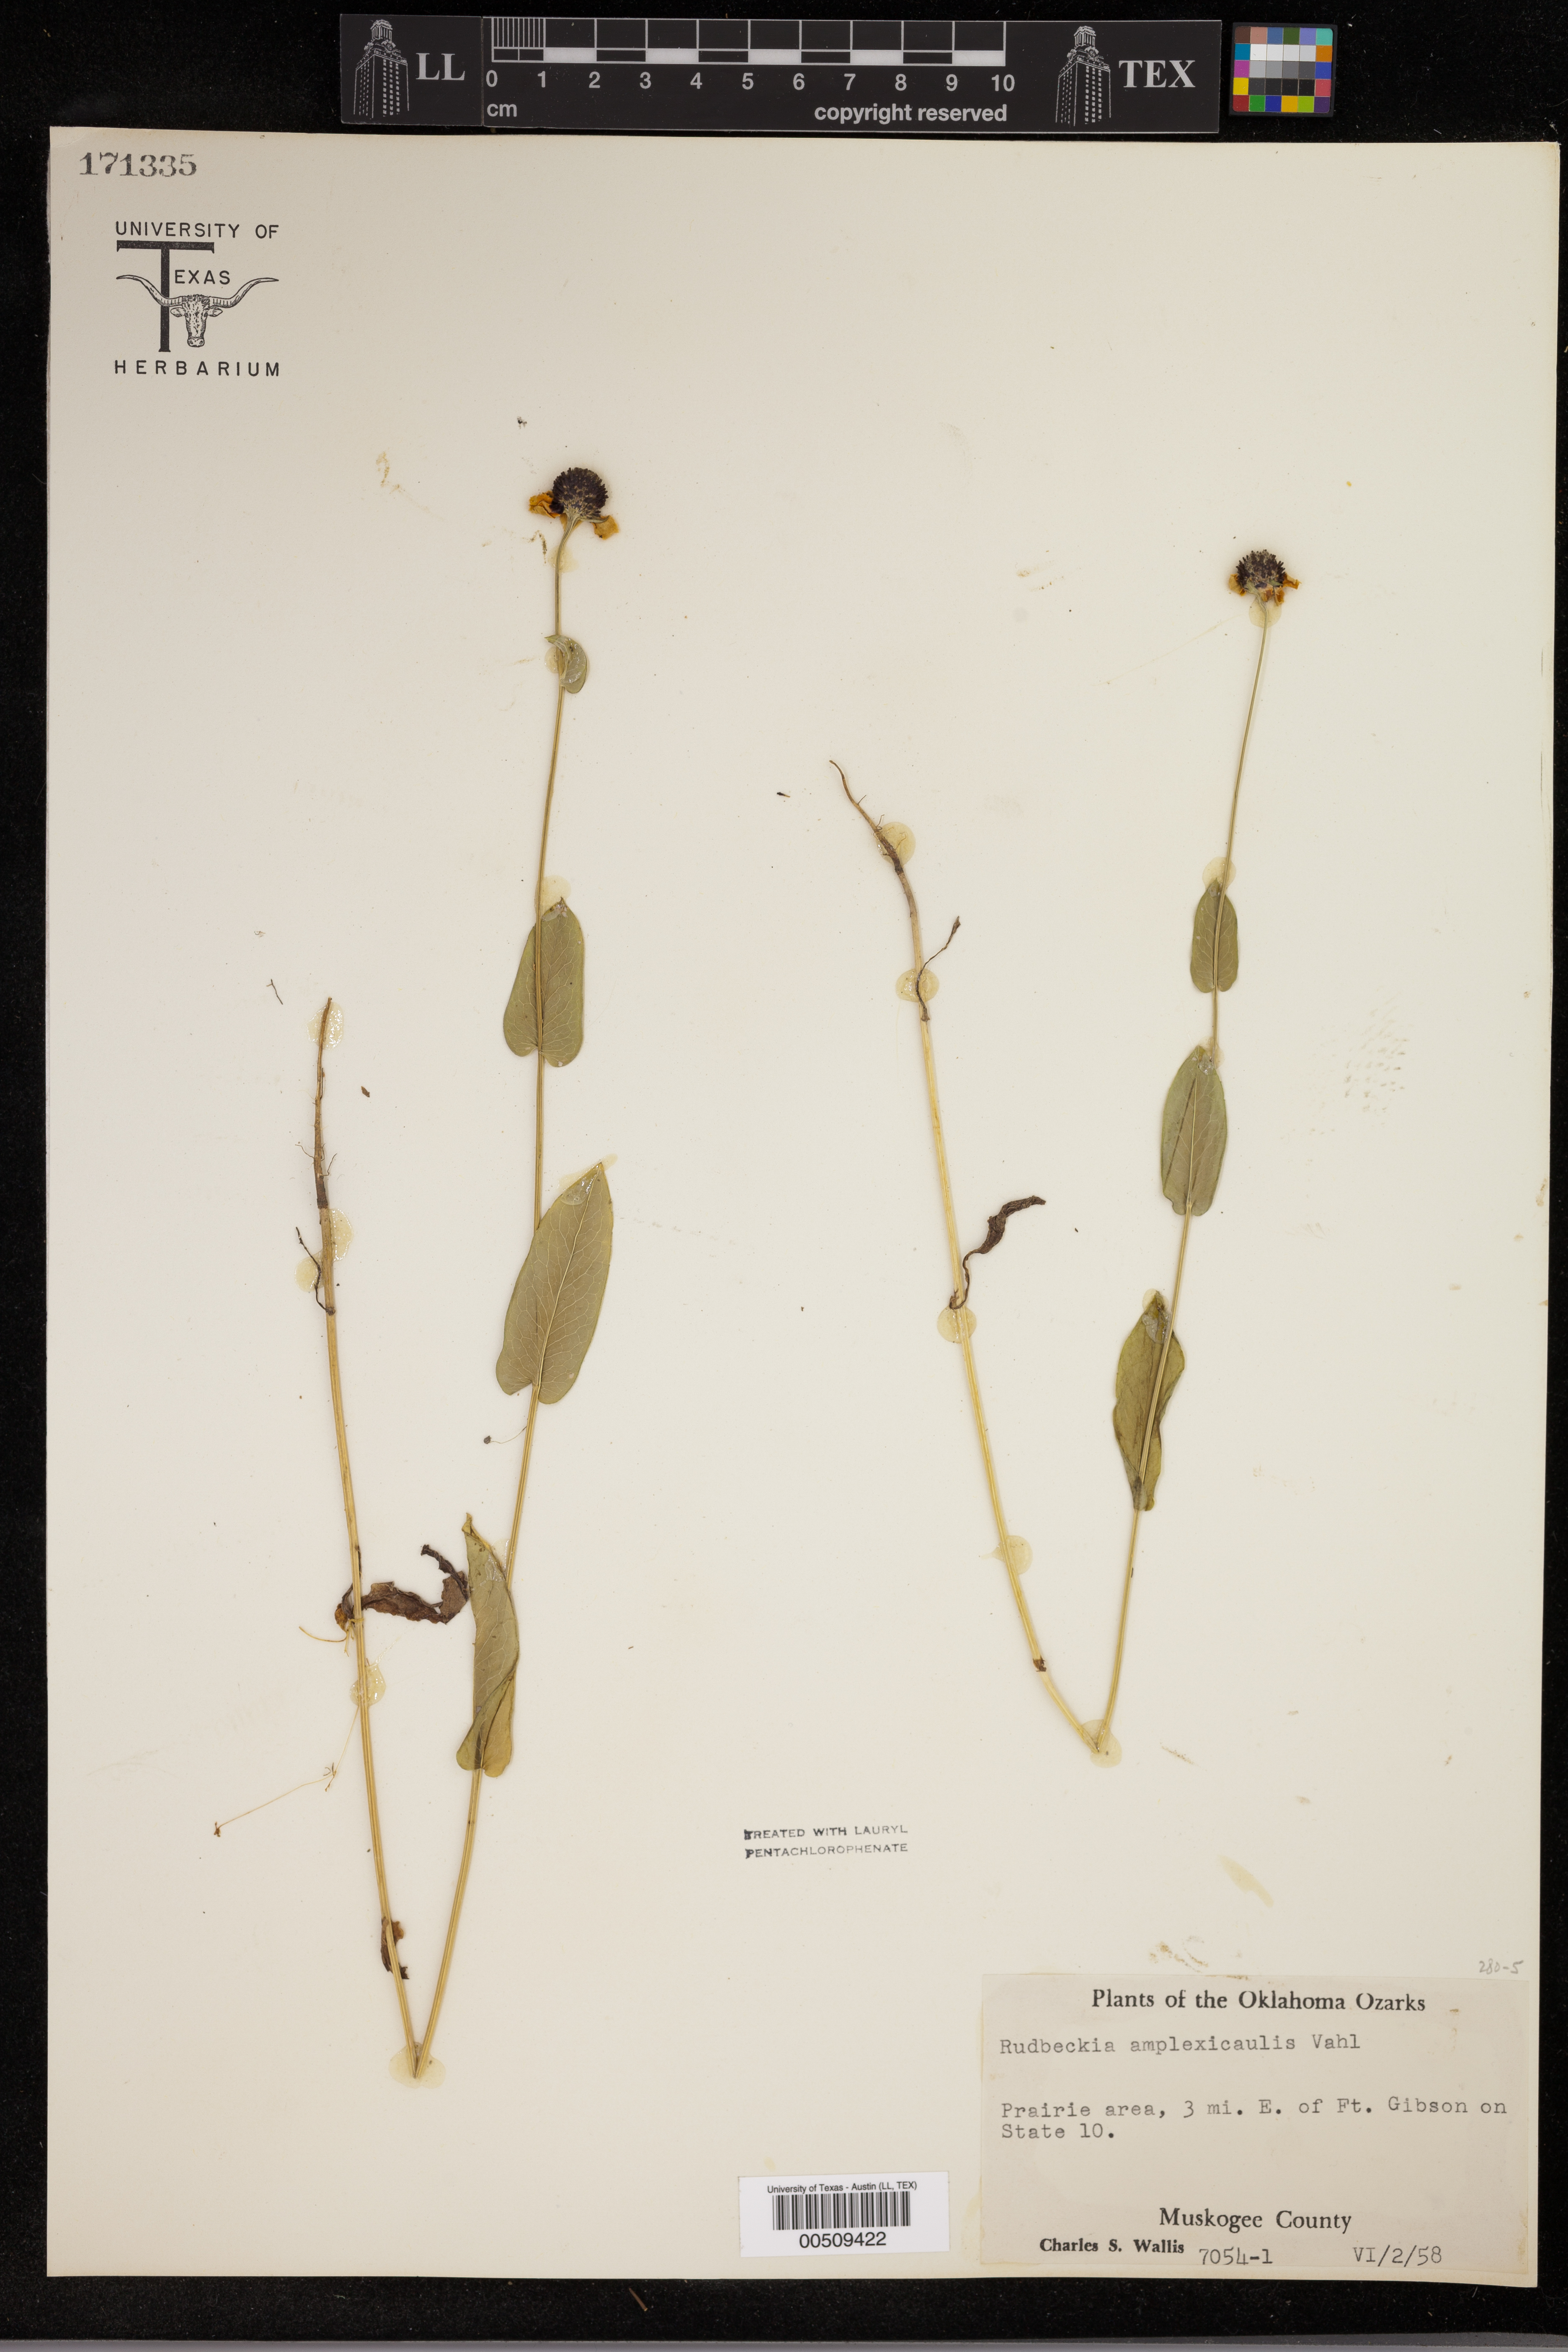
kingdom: Plantae
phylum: Tracheophyta
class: Magnoliopsida
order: Asterales
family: Asteraceae
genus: Rudbeckia
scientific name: Rudbeckia amplexicaulis
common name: Clasping-leaf coneflower
